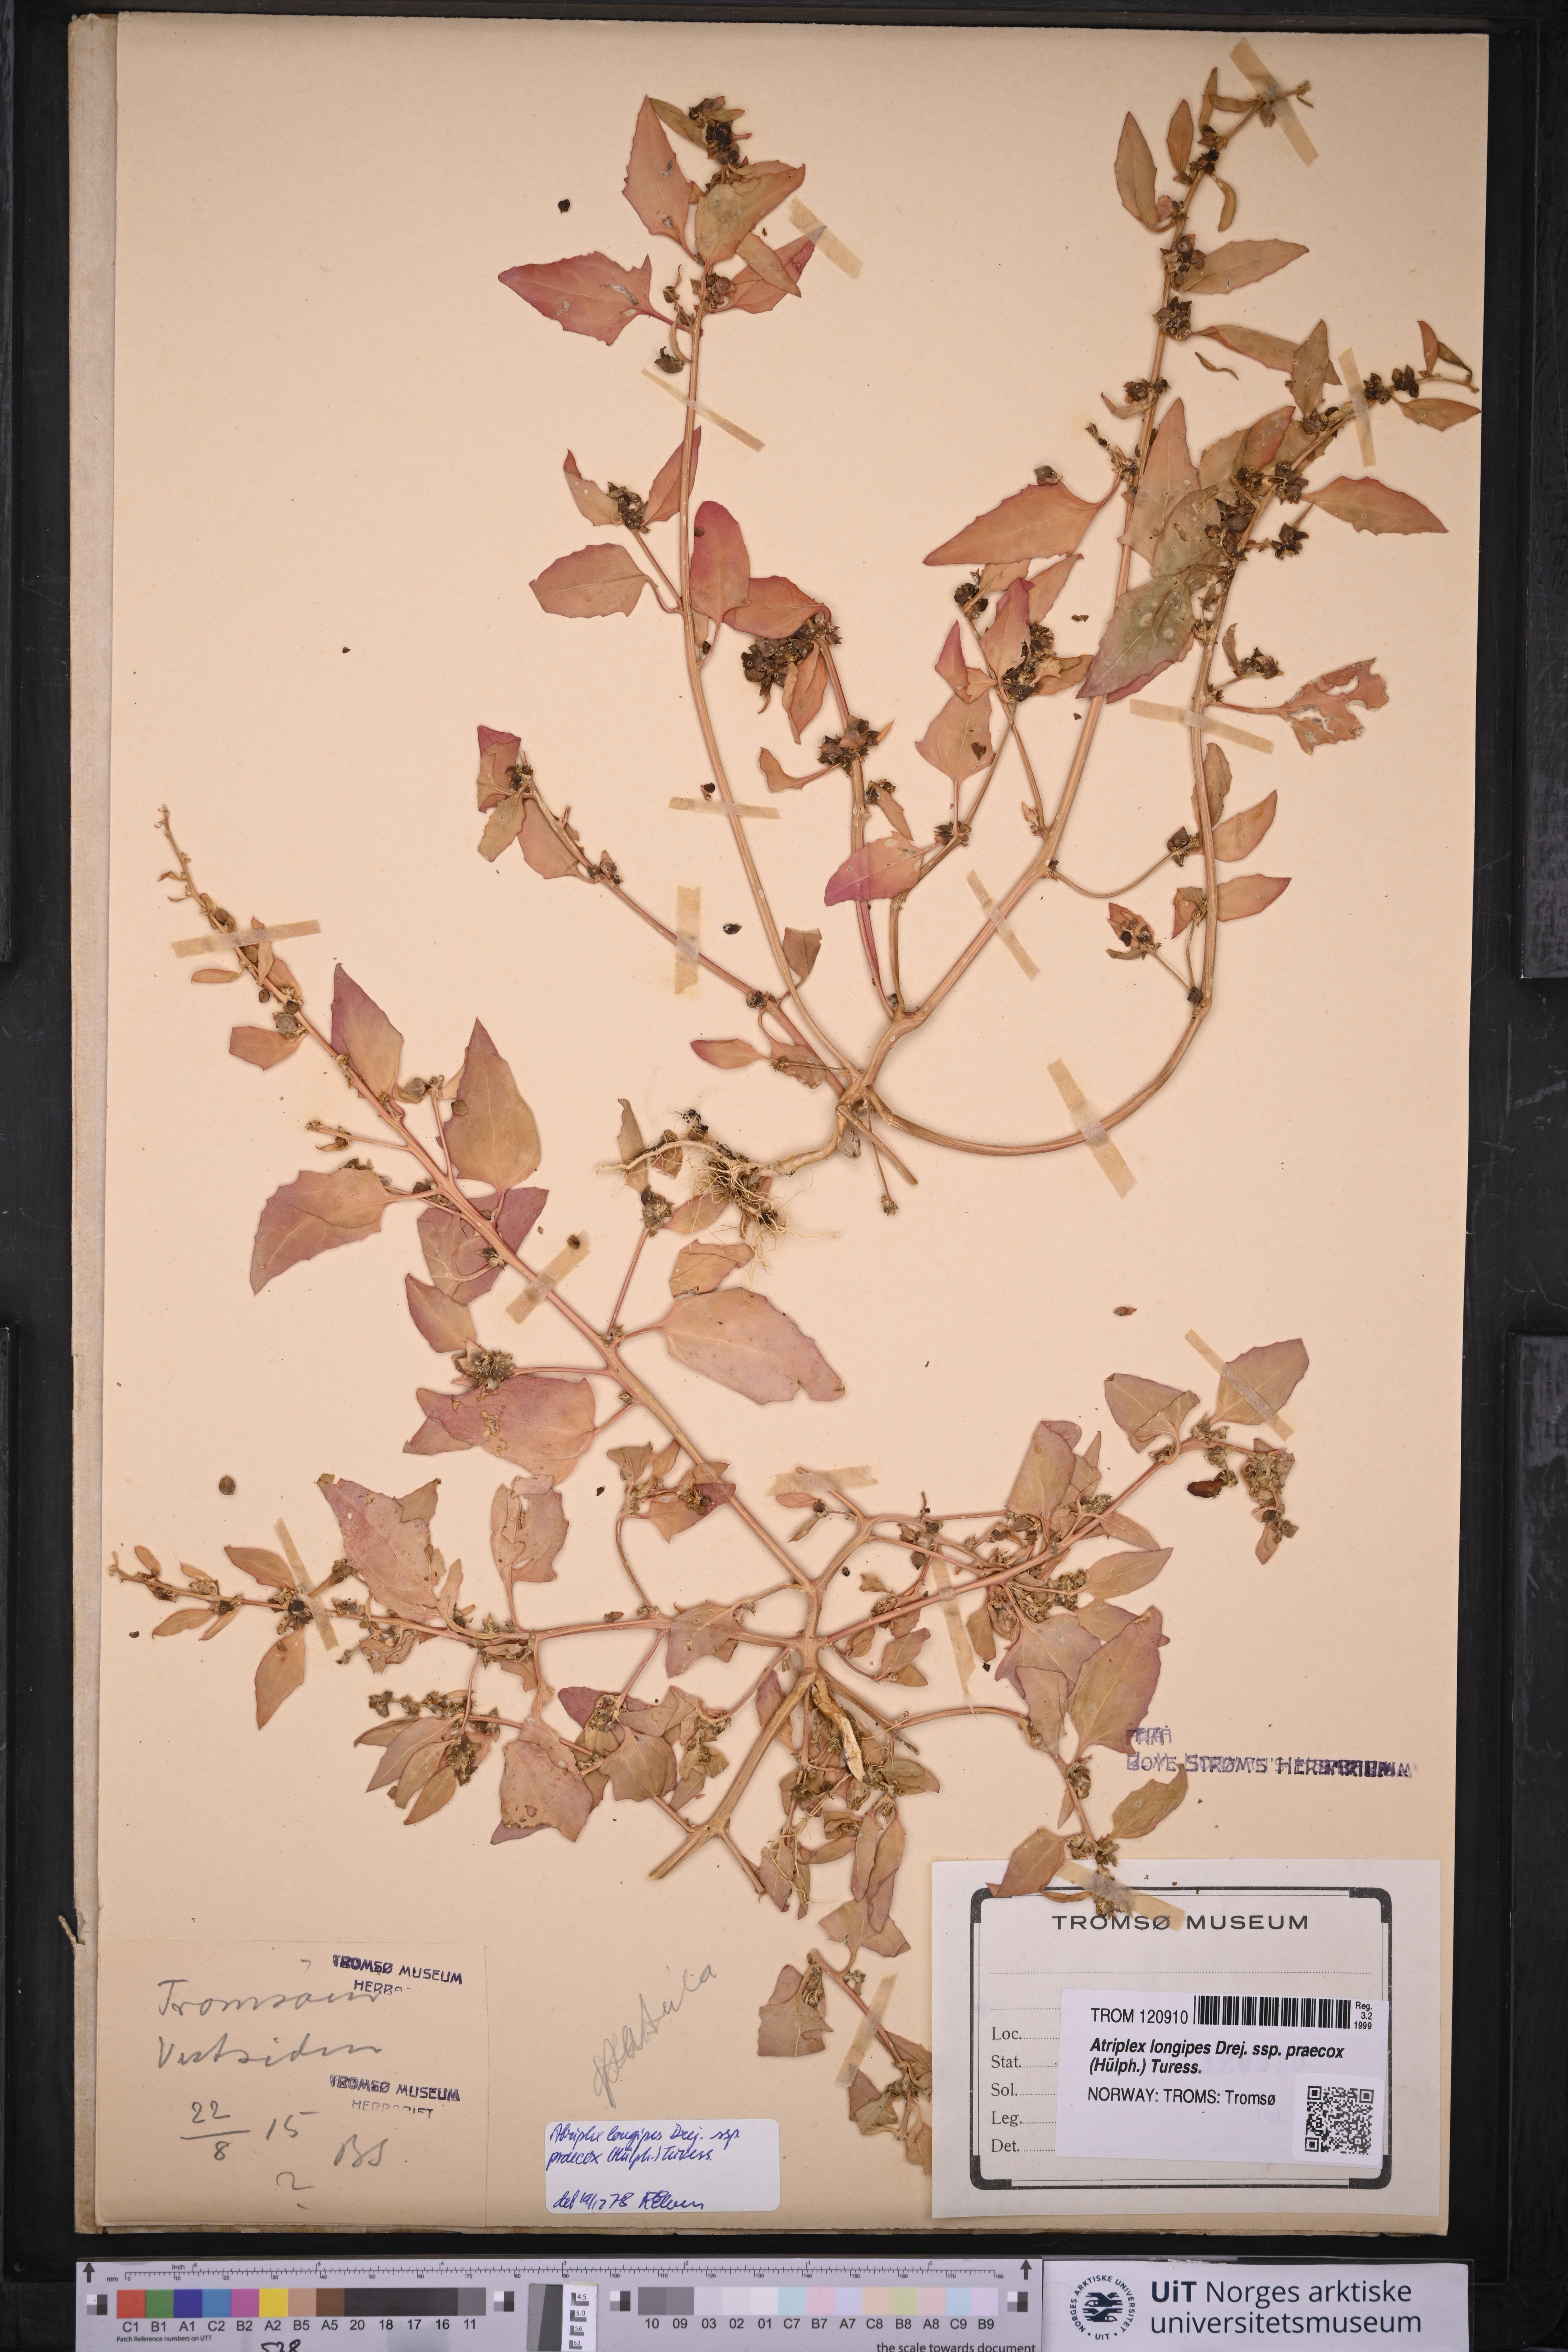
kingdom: Plantae
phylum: Tracheophyta
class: Magnoliopsida
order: Caryophyllales
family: Amaranthaceae
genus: Atriplex
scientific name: Atriplex praecox
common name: Early orache
